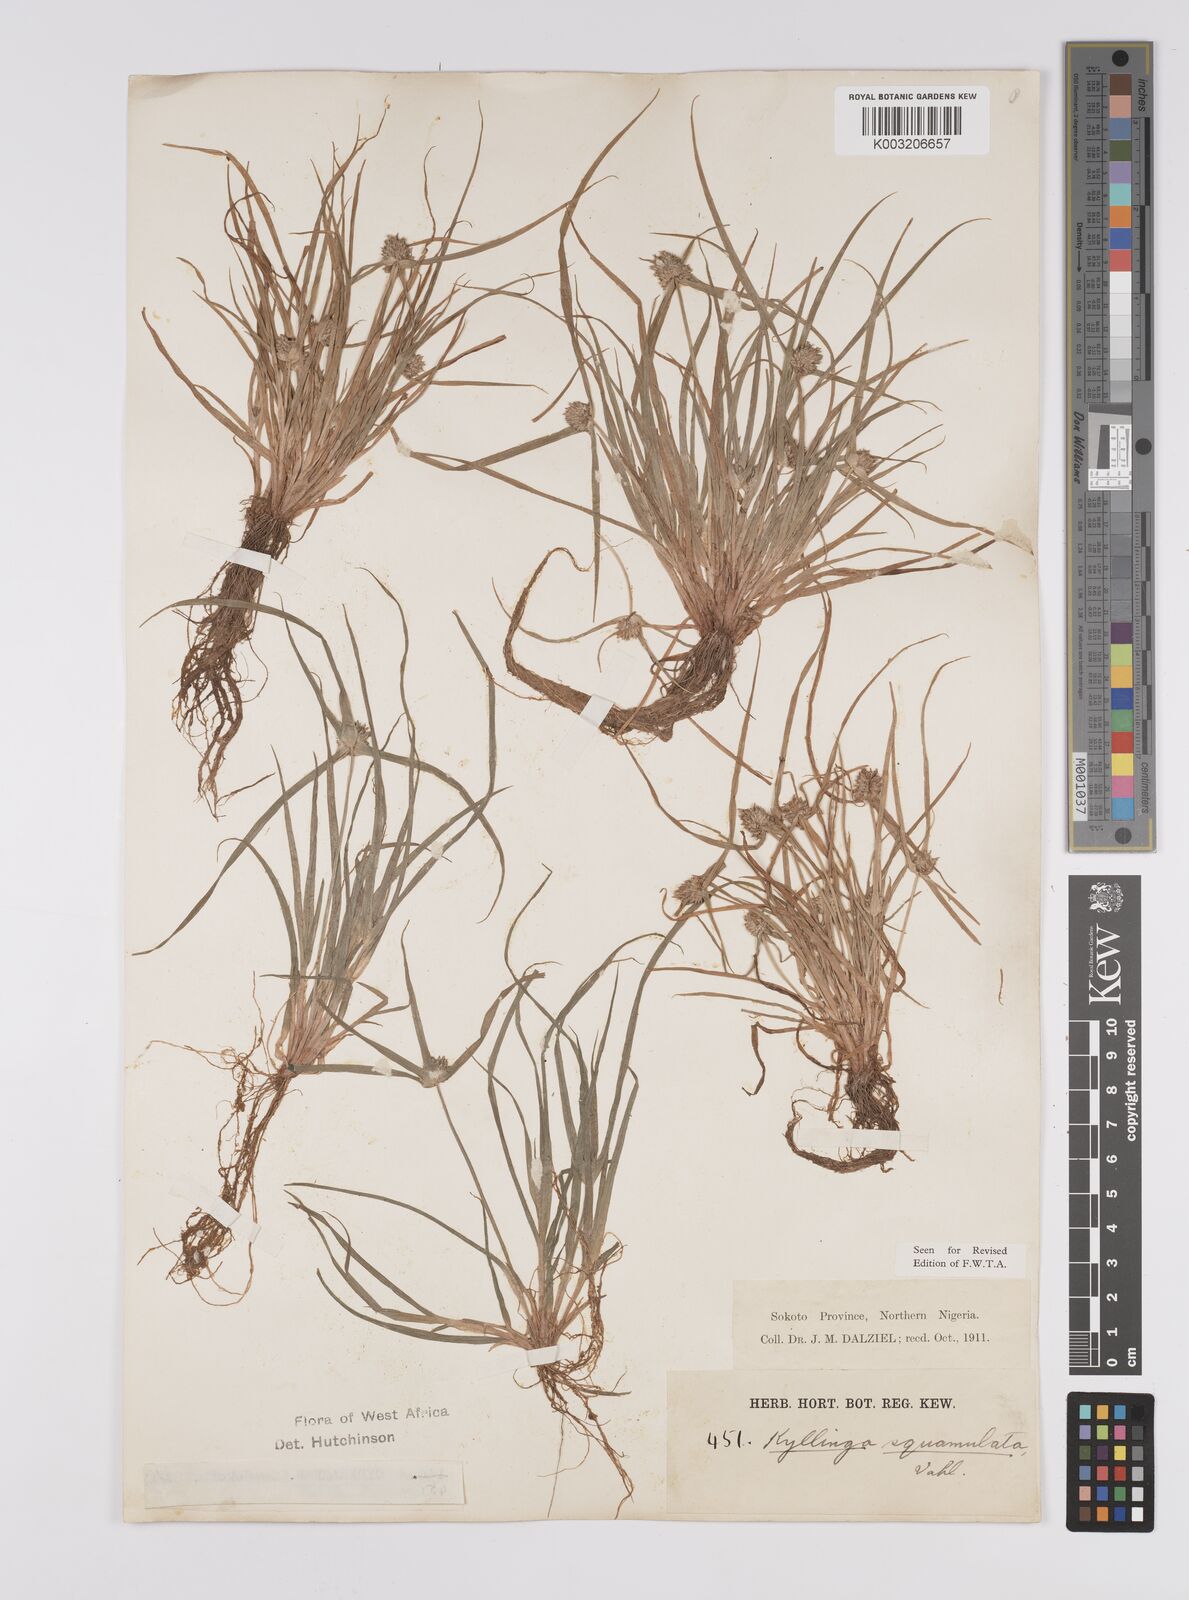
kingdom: Plantae
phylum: Tracheophyta
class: Liliopsida
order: Poales
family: Cyperaceae
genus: Cyperus
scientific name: Cyperus distans
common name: Slender cyperus
